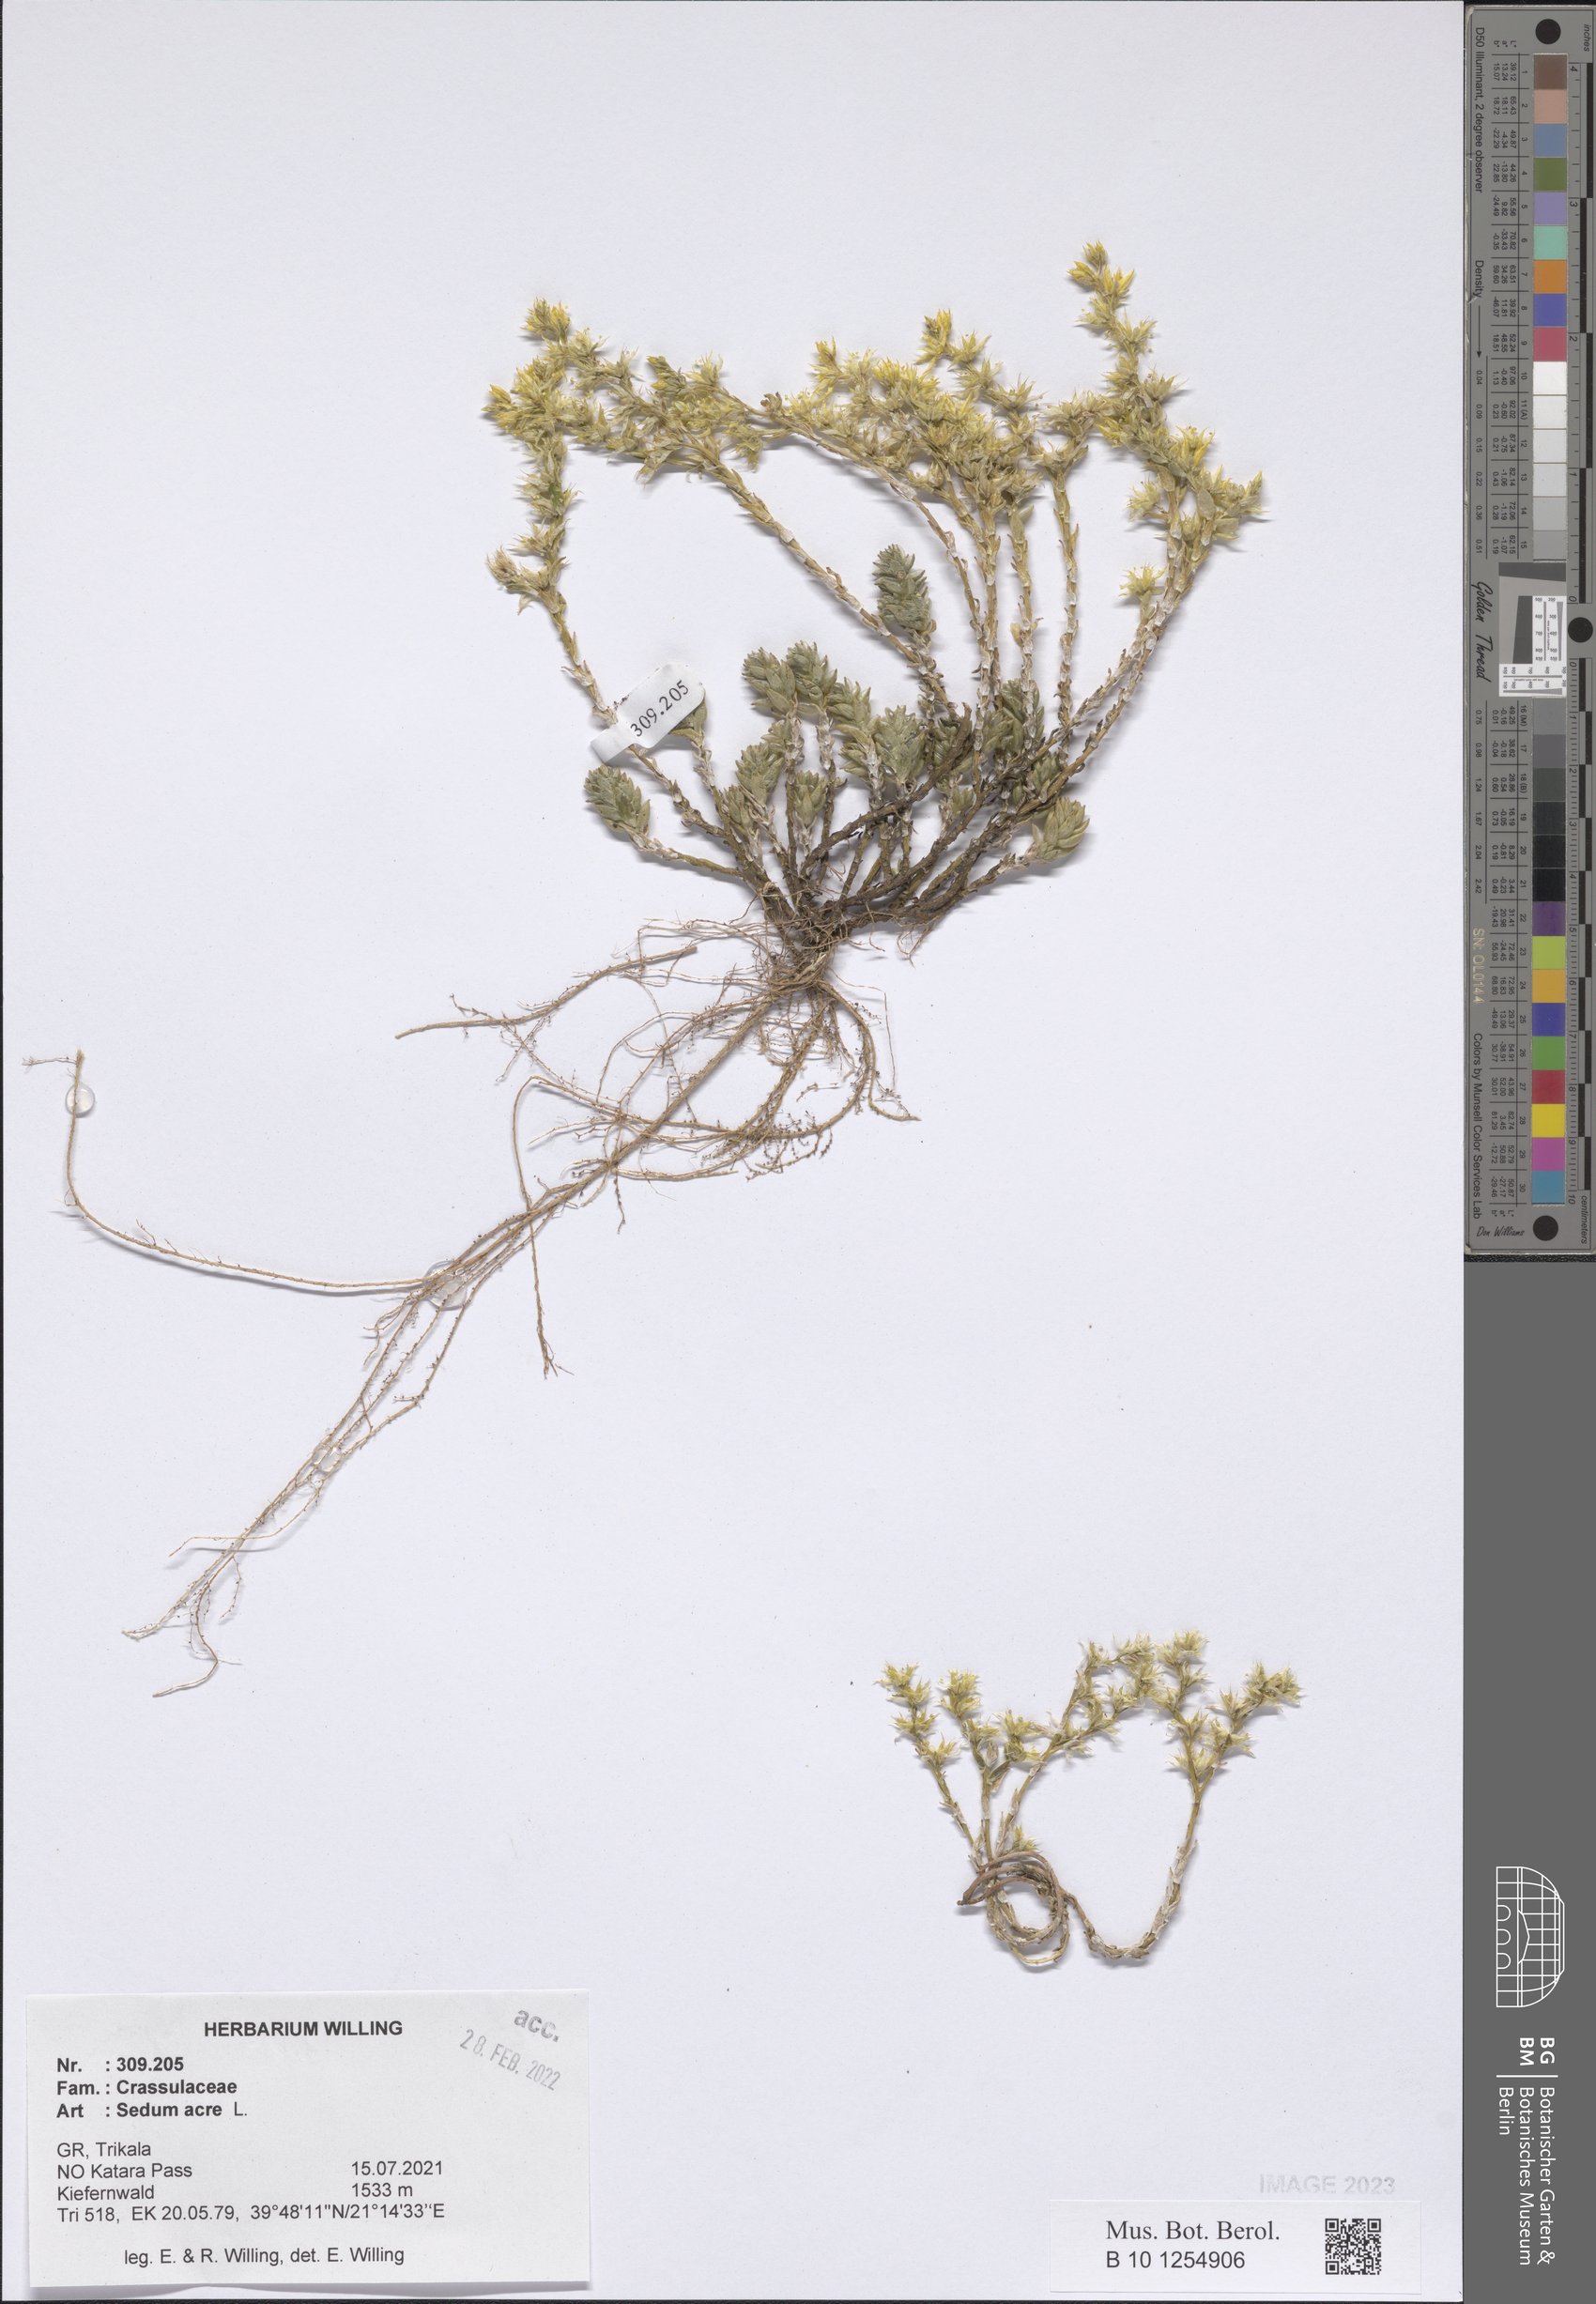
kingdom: Plantae
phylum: Tracheophyta
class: Magnoliopsida
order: Saxifragales
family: Crassulaceae
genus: Sedum
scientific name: Sedum acre
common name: Biting stonecrop
